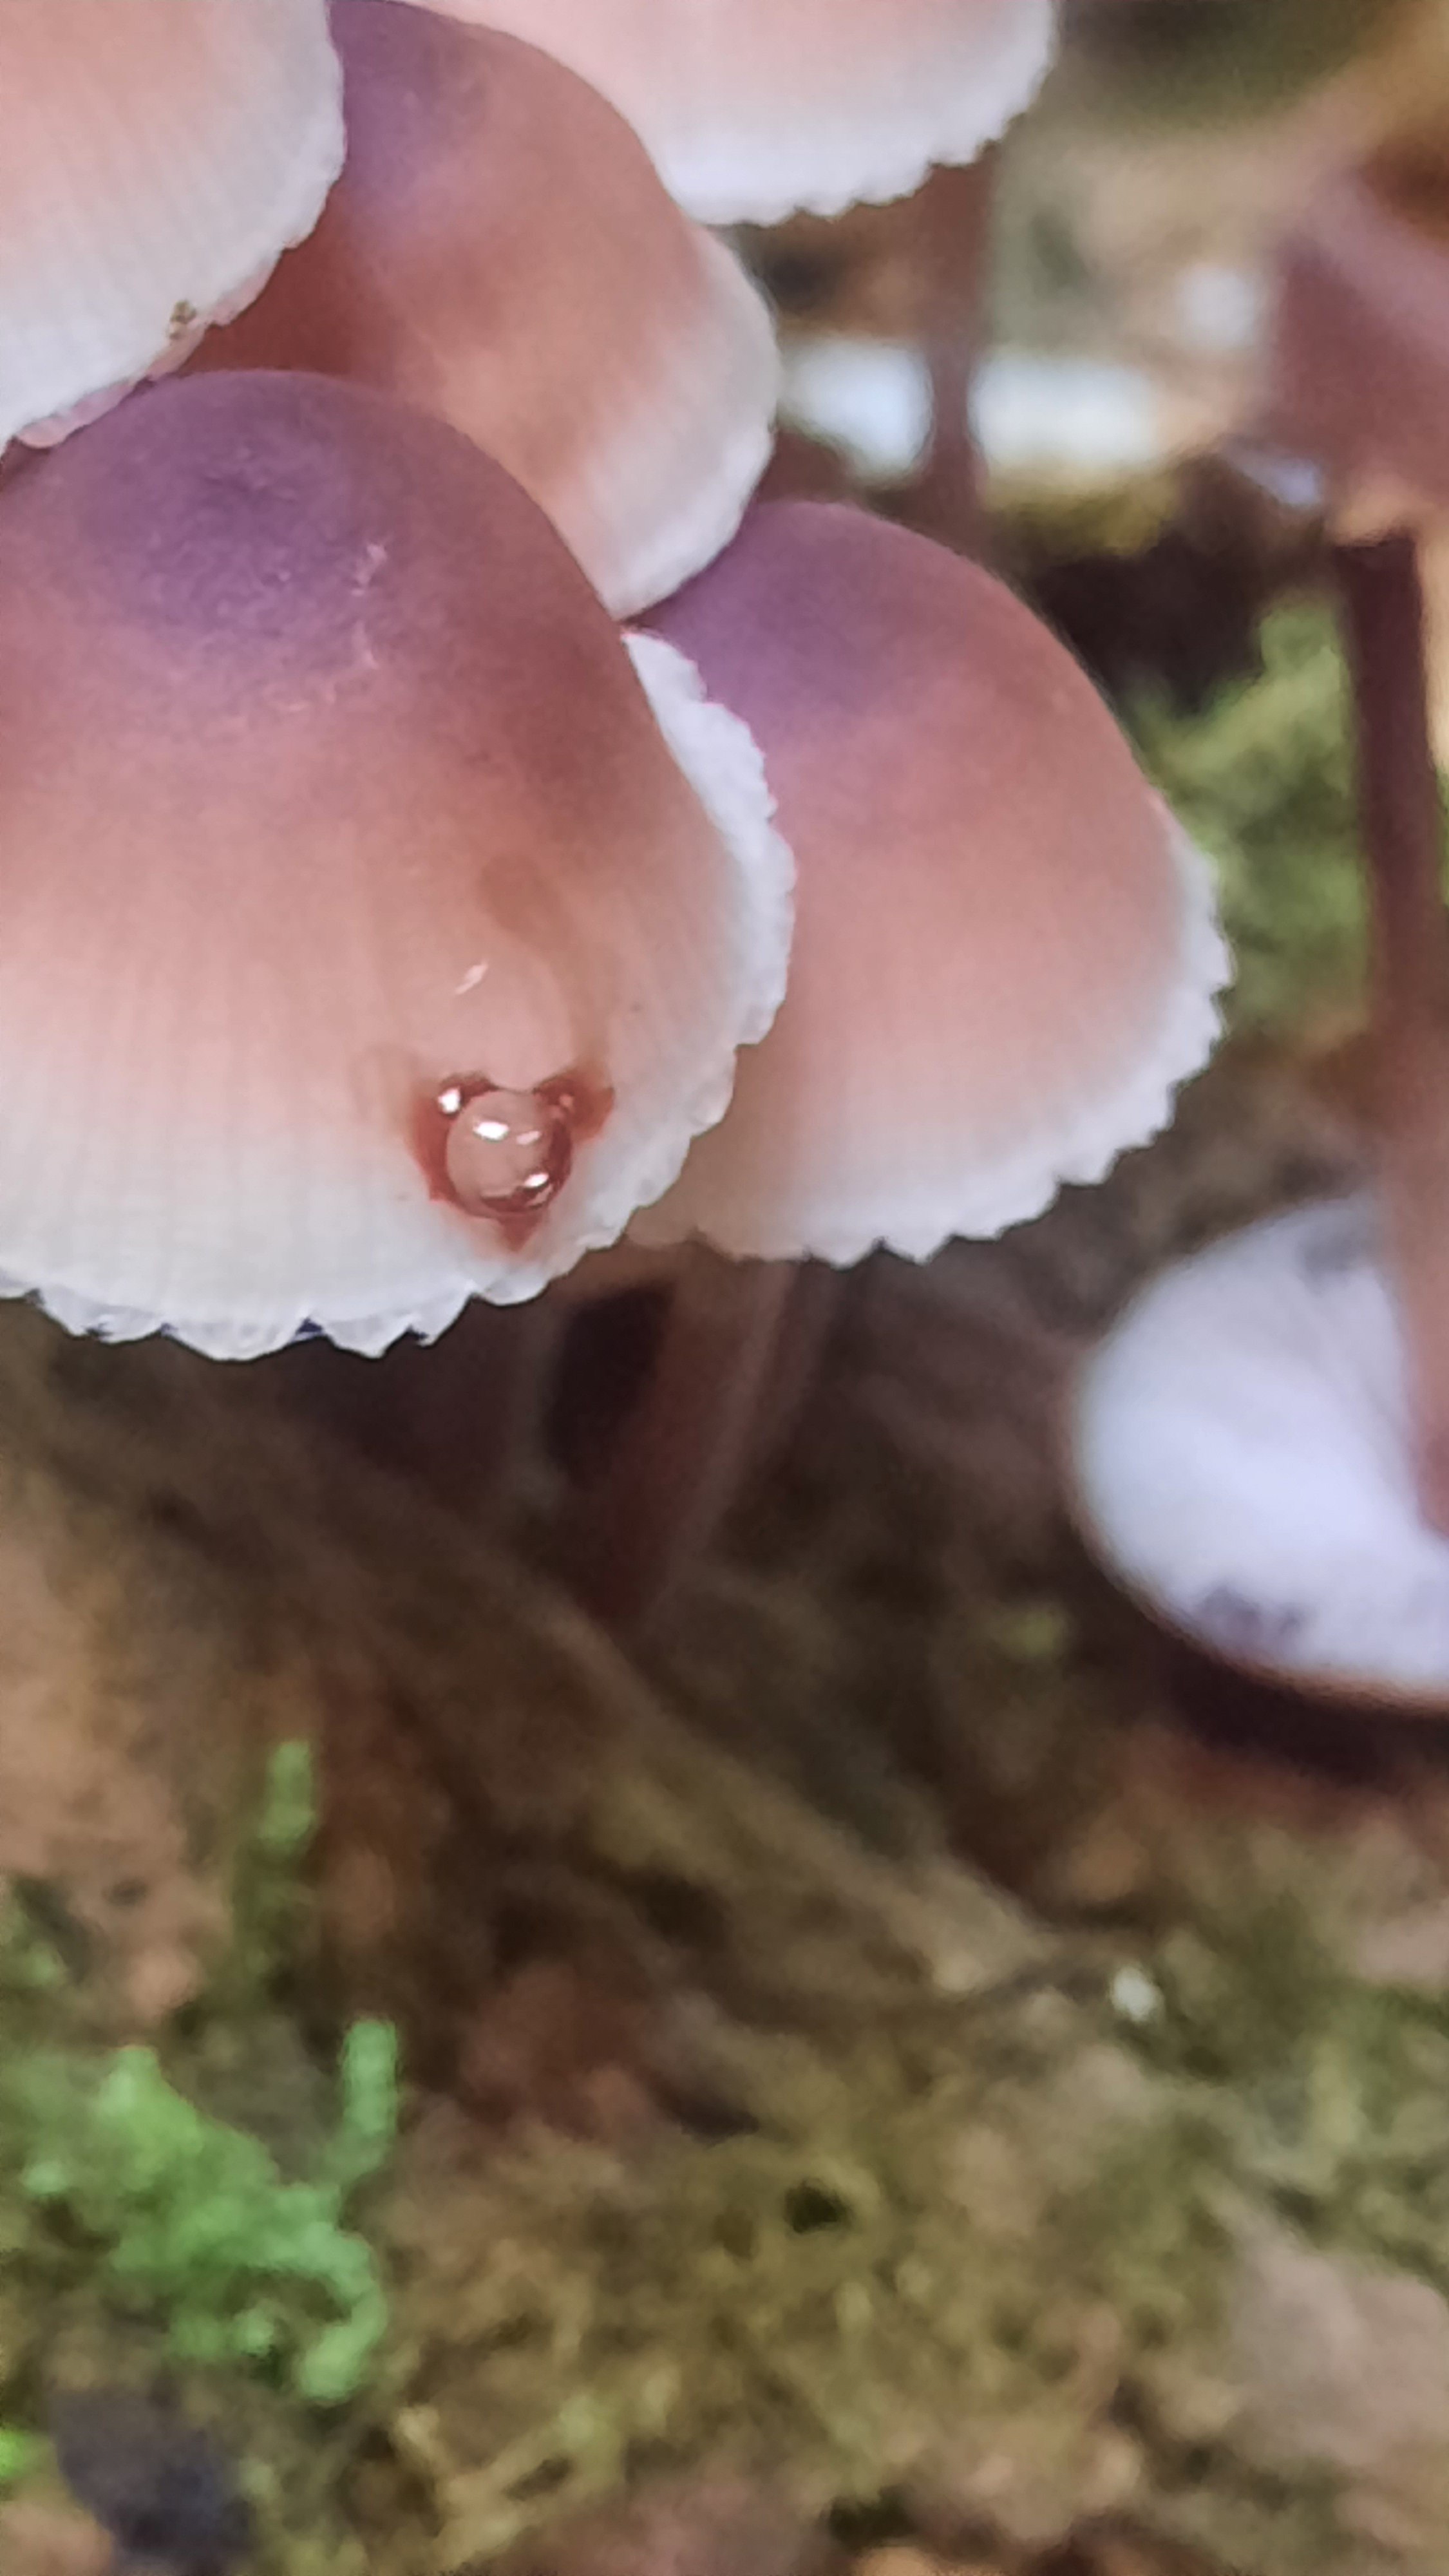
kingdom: Fungi
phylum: Basidiomycota
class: Agaricomycetes
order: Agaricales
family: Mycenaceae
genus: Mycena
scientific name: Mycena haematopus
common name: blødende huesvamp
